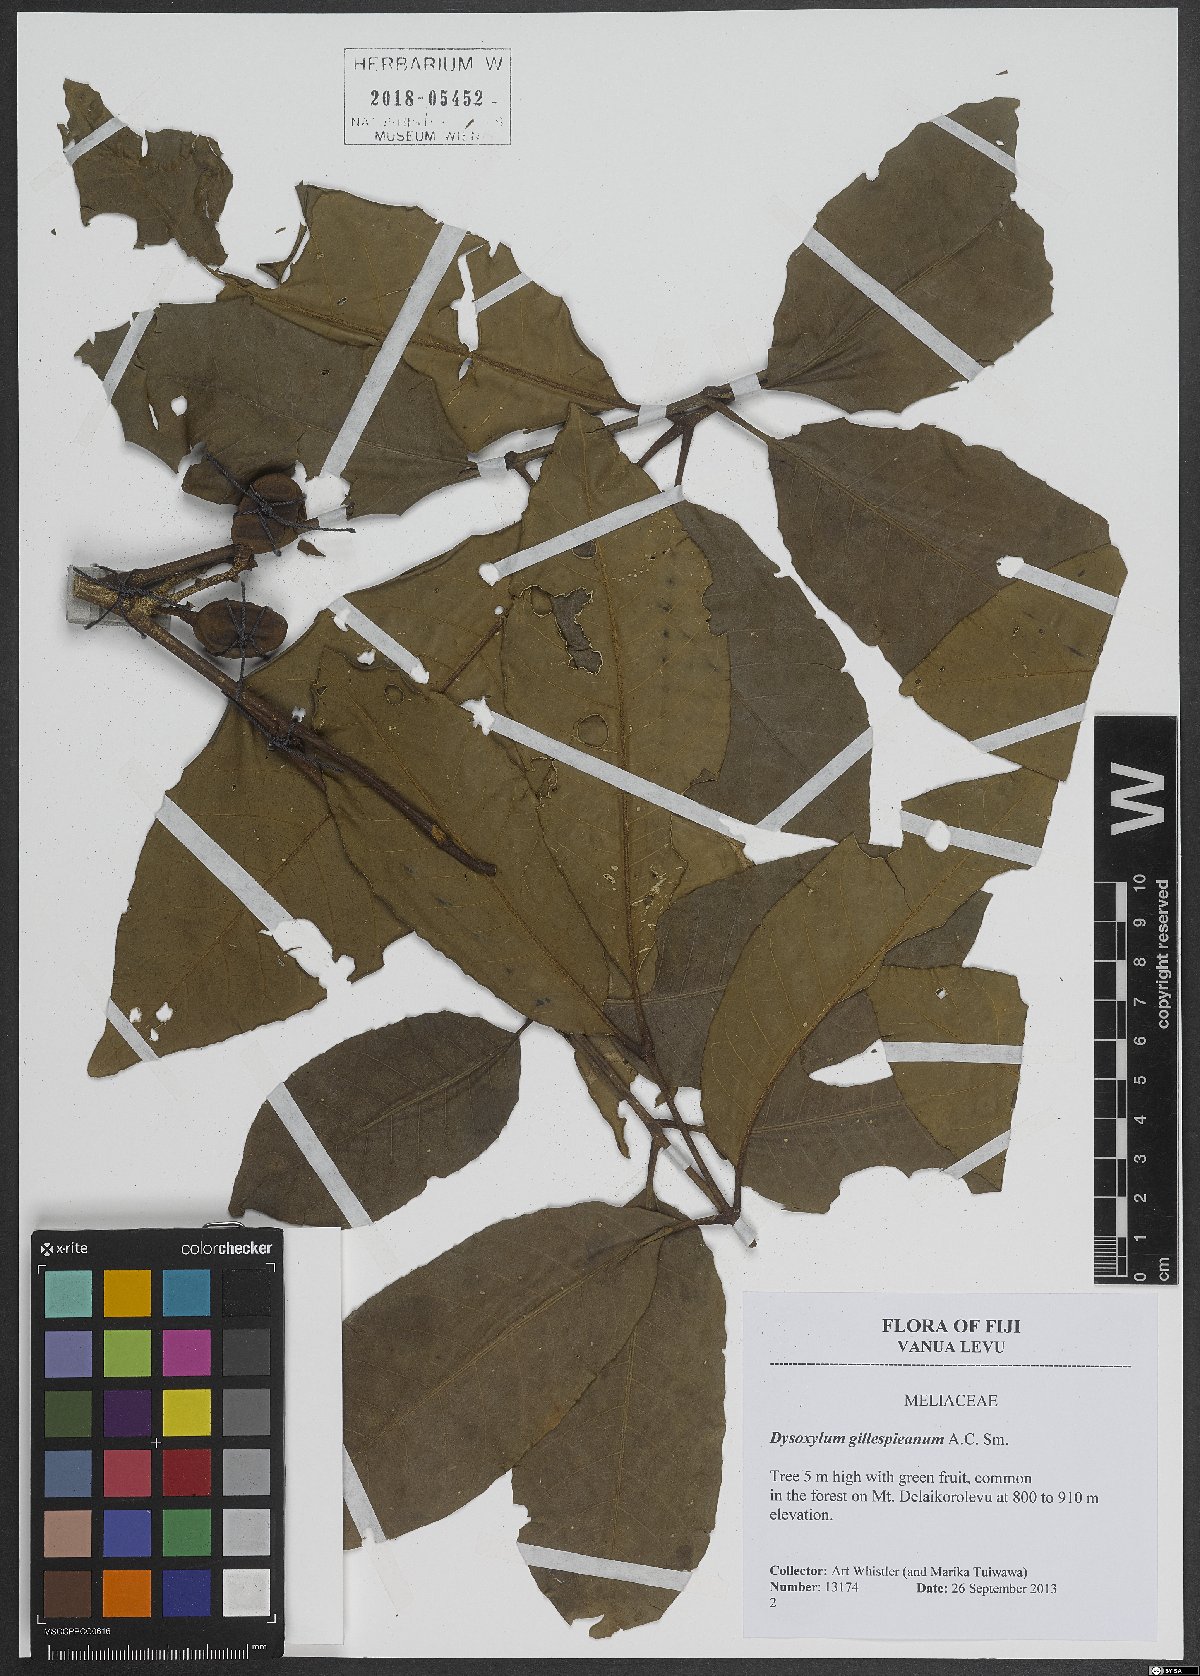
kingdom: Plantae
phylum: Tracheophyta
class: Magnoliopsida
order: Sapindales
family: Meliaceae
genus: Epicharis
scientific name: Epicharis gillespieana
